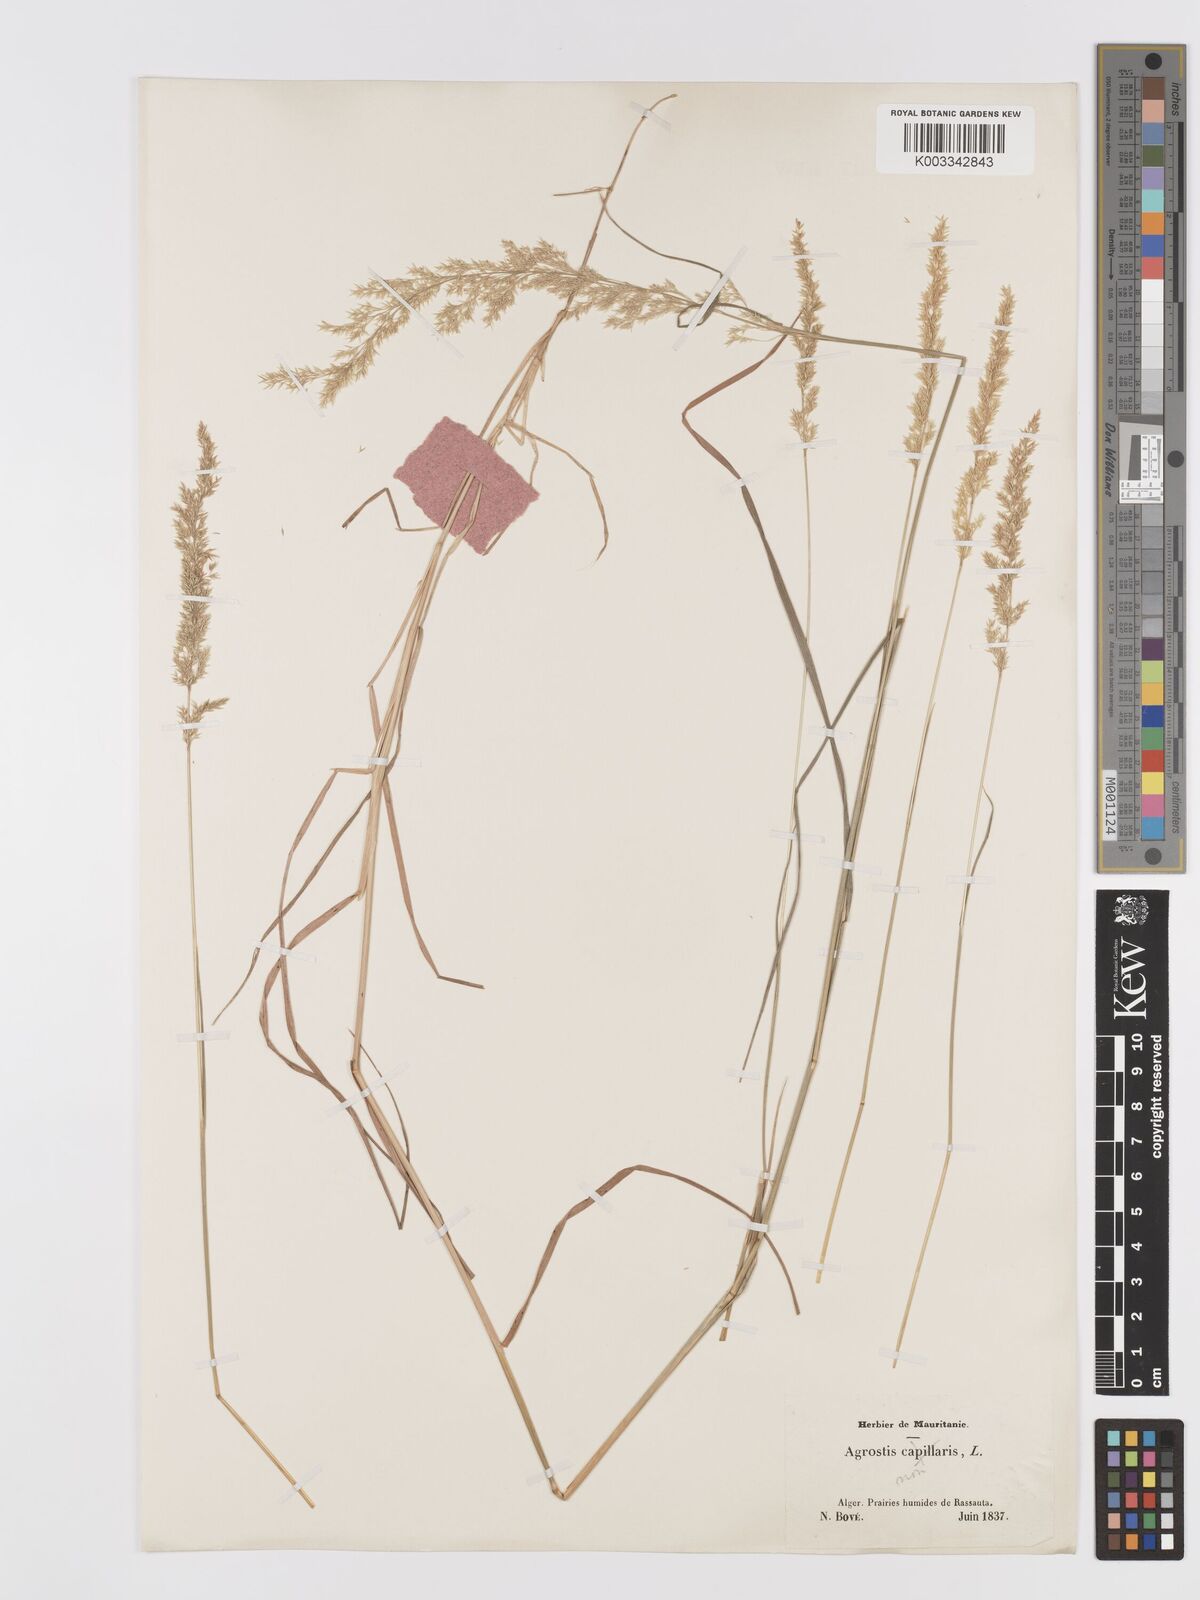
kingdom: Plantae
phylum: Tracheophyta
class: Liliopsida
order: Poales
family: Poaceae
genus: Agrostis
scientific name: Agrostis stolonifera
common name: Creeping bentgrass
